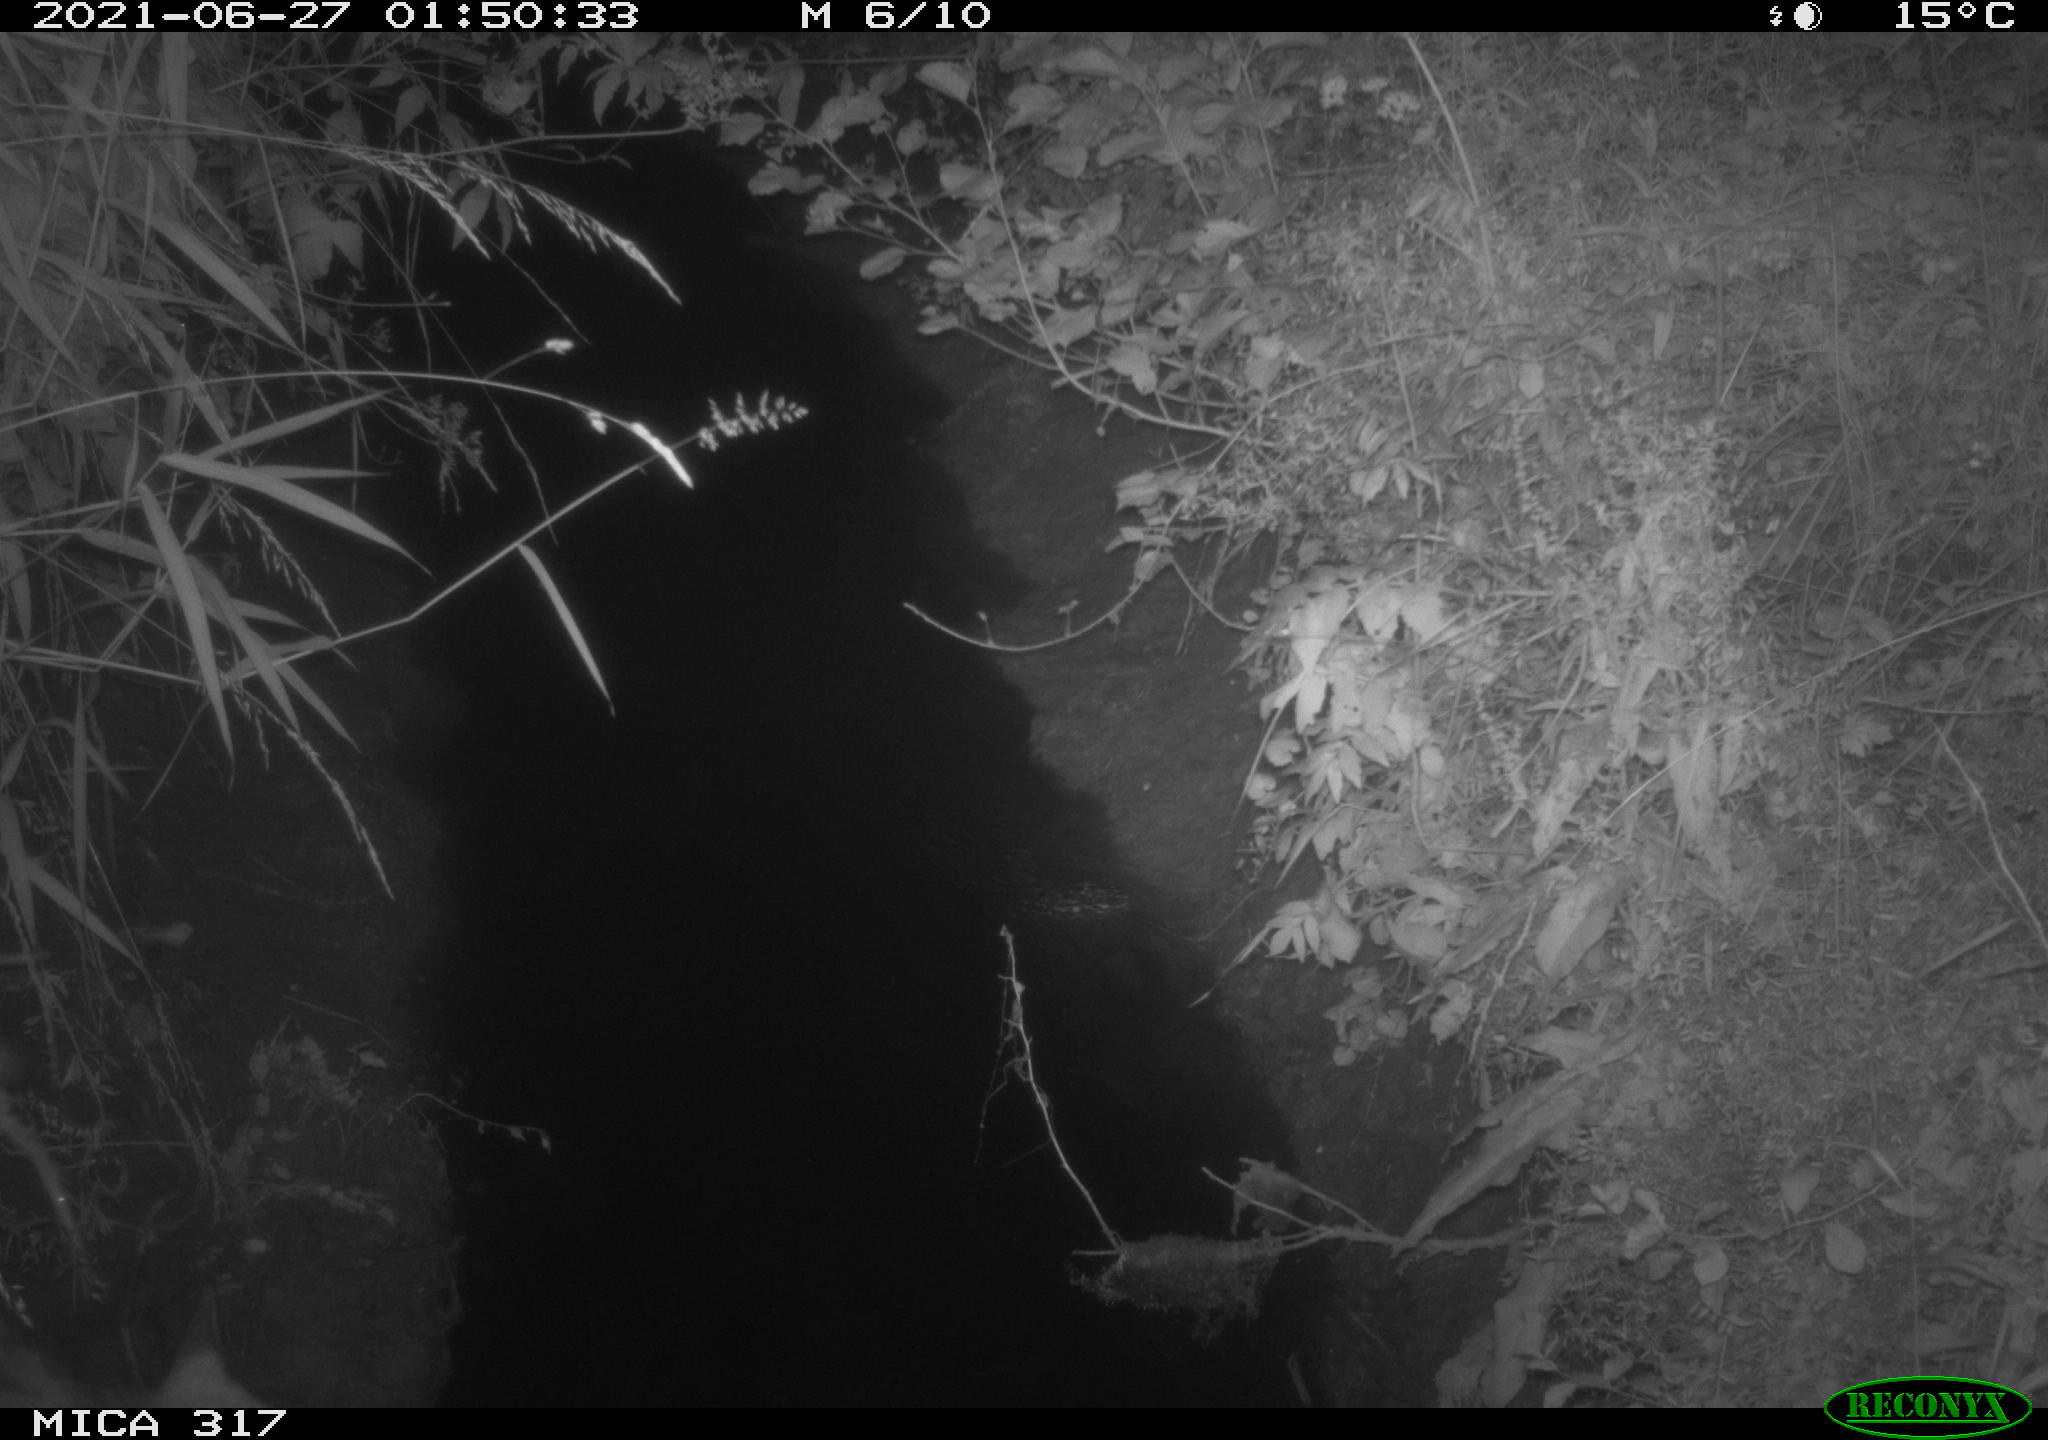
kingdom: Animalia
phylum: Chordata
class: Mammalia
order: Carnivora
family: Canidae
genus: Vulpes
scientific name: Vulpes vulpes
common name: Red fox
